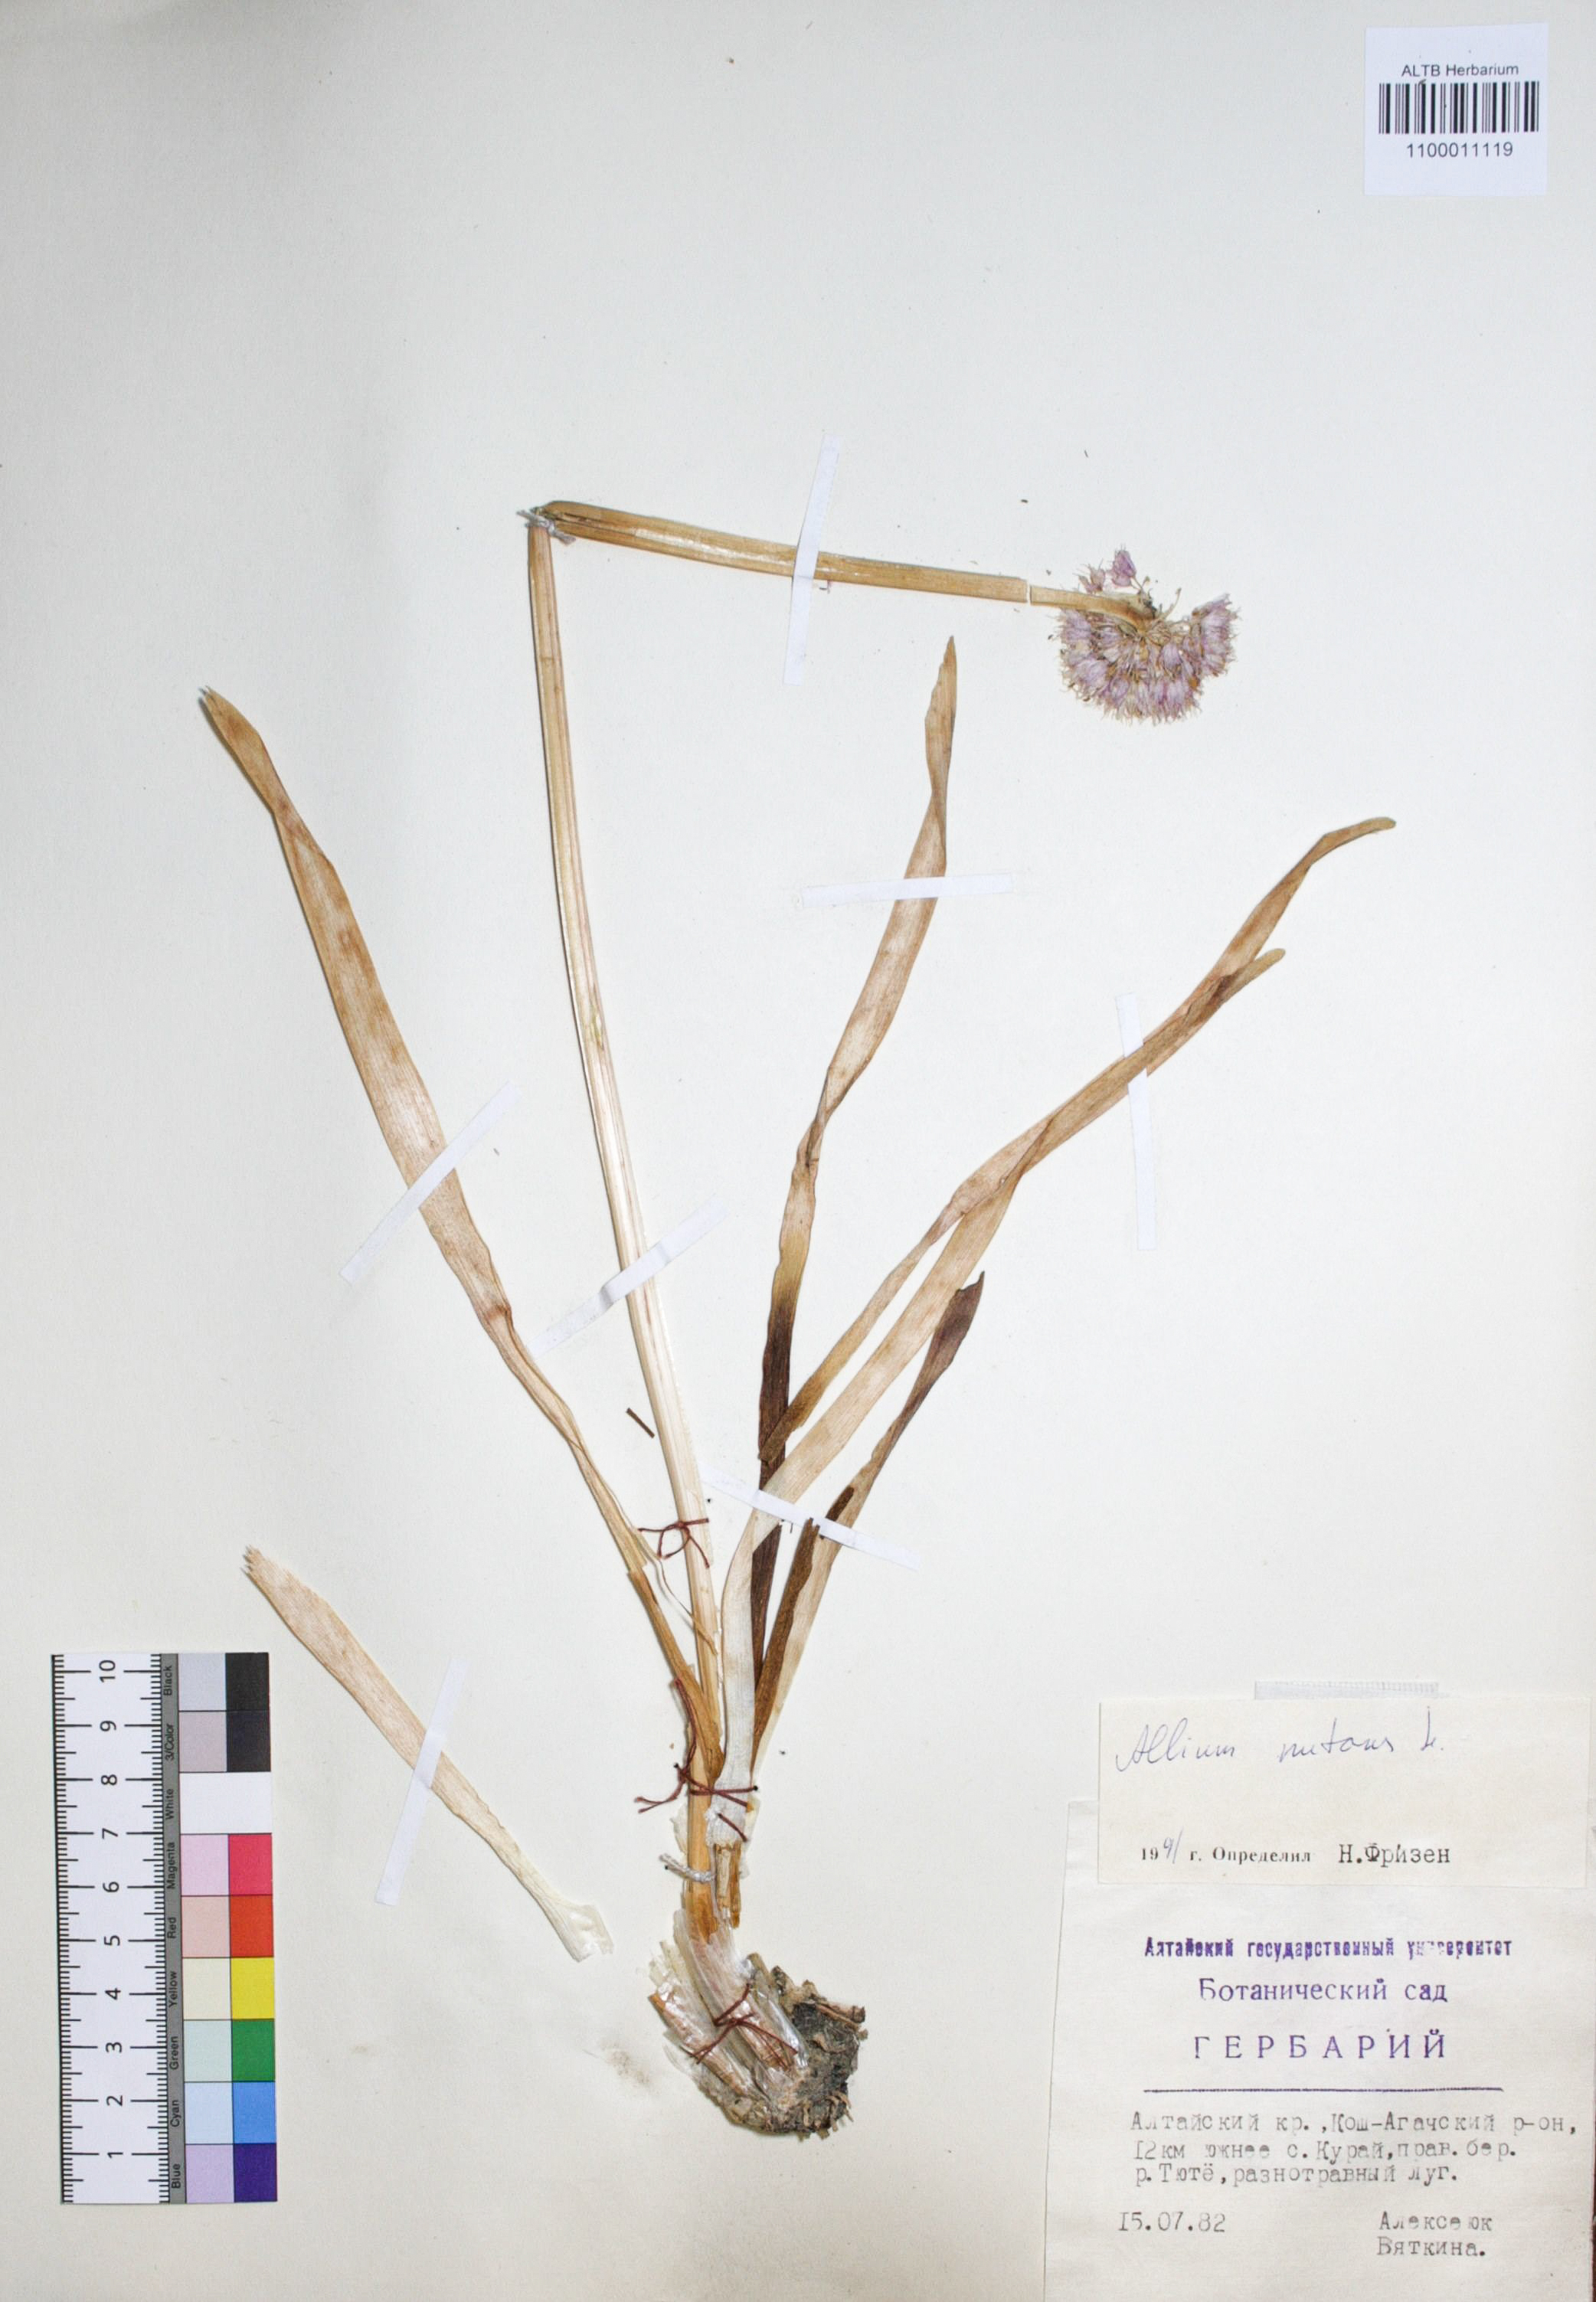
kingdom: Plantae
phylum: Tracheophyta
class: Liliopsida
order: Asparagales
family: Amaryllidaceae
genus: Allium
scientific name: Allium nutans
